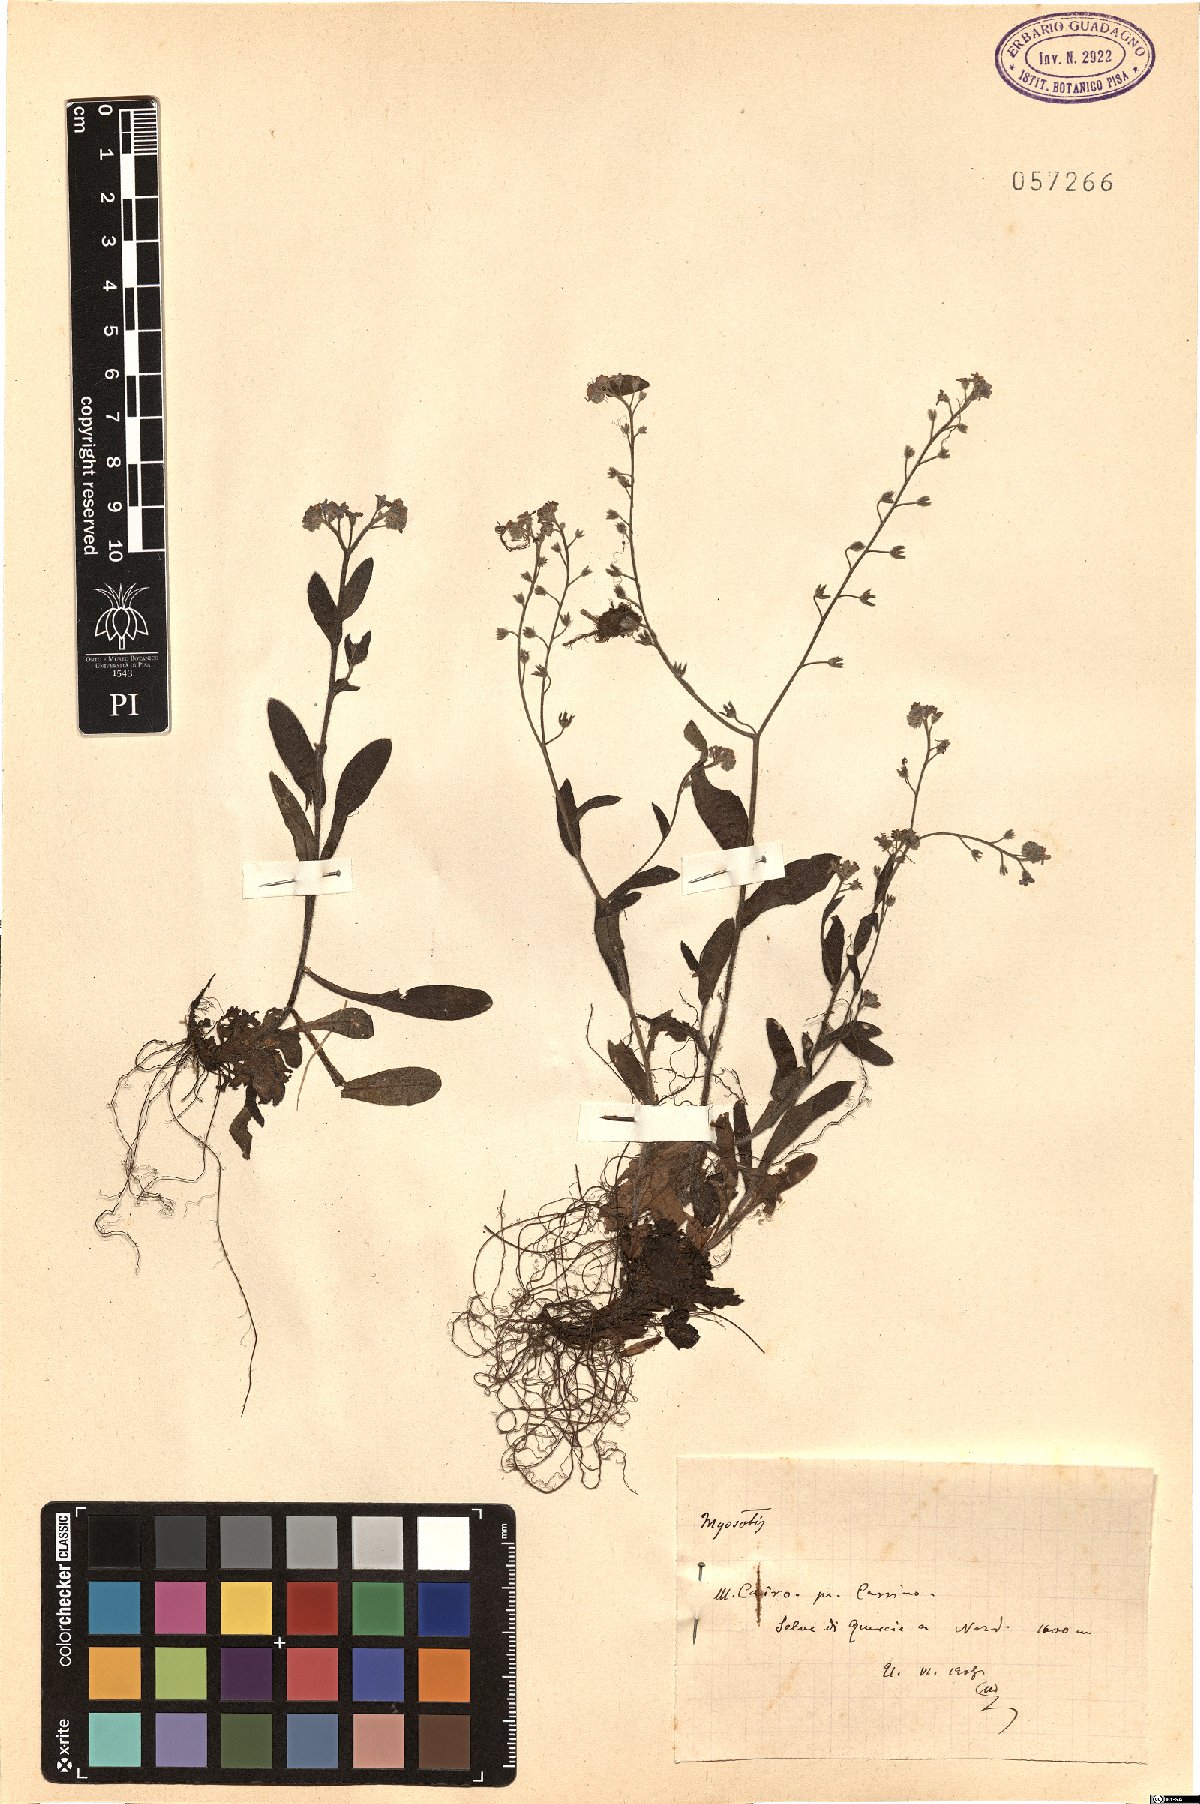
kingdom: Plantae
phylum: Tracheophyta
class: Magnoliopsida
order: Boraginales
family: Boraginaceae
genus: Myosotis
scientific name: Myosotis
